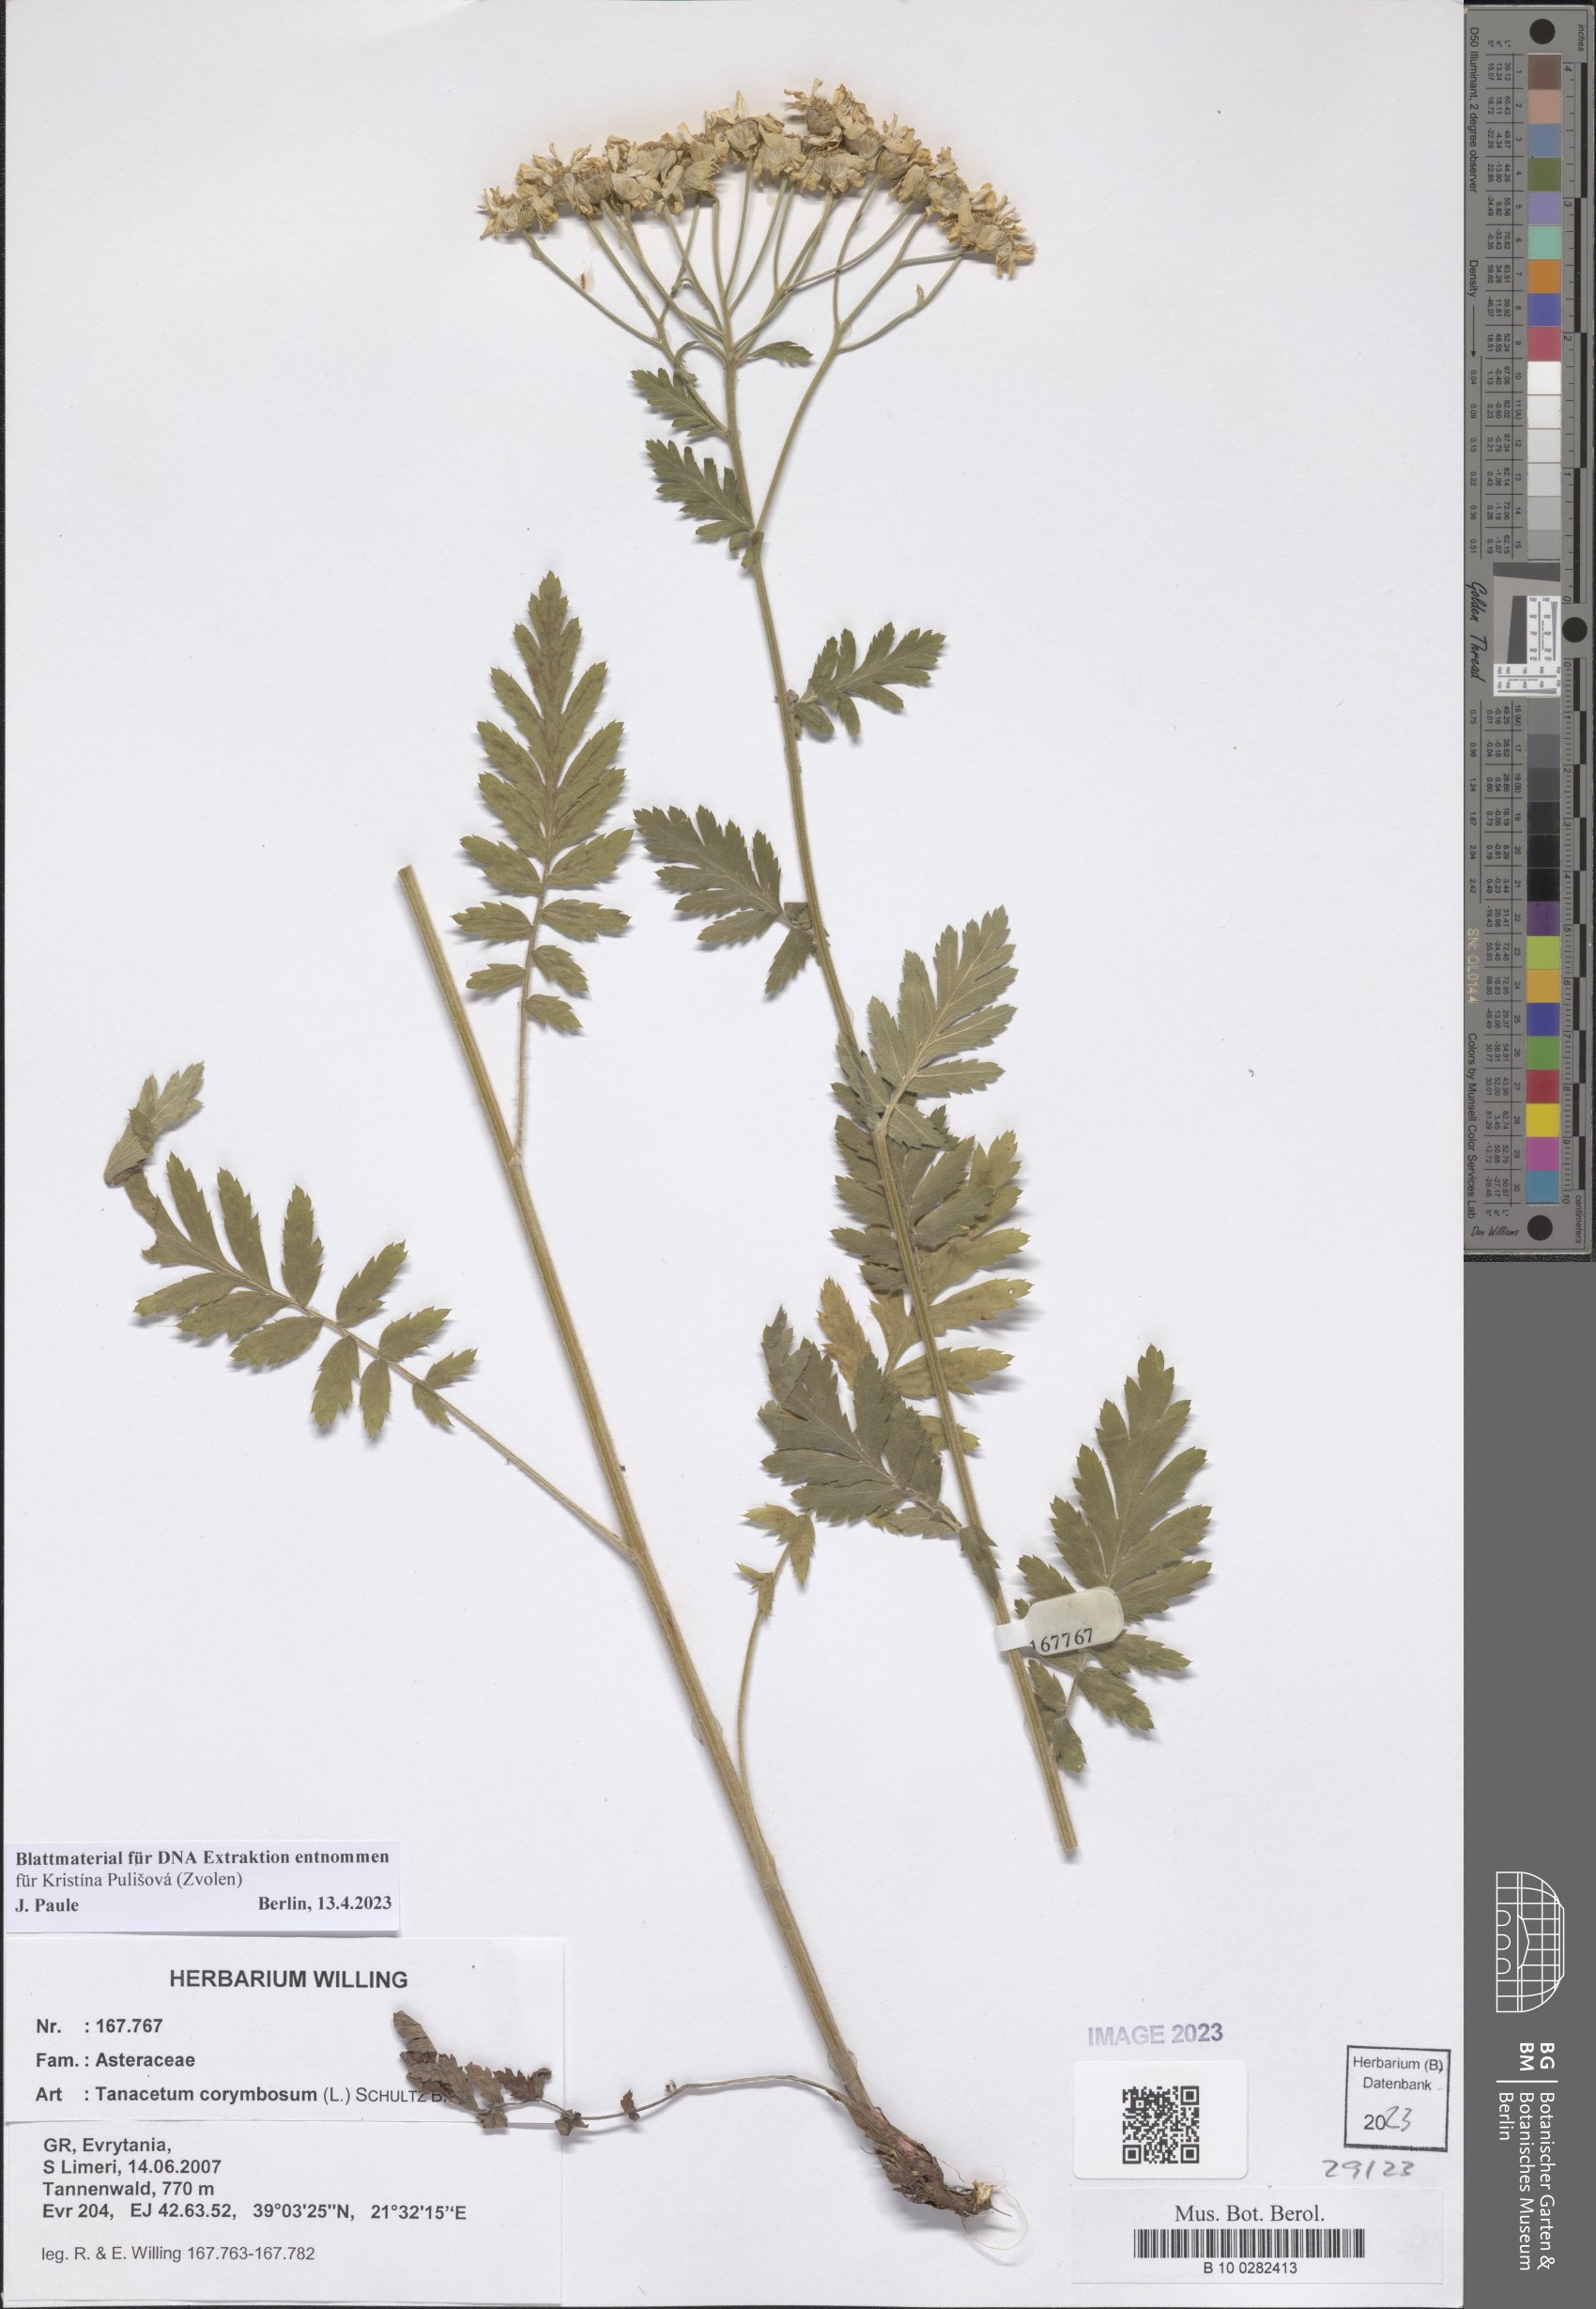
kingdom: Plantae
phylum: Tracheophyta
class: Magnoliopsida
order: Asterales
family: Asteraceae
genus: Tanacetum
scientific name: Tanacetum corymbosum
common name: Scentless feverfew
